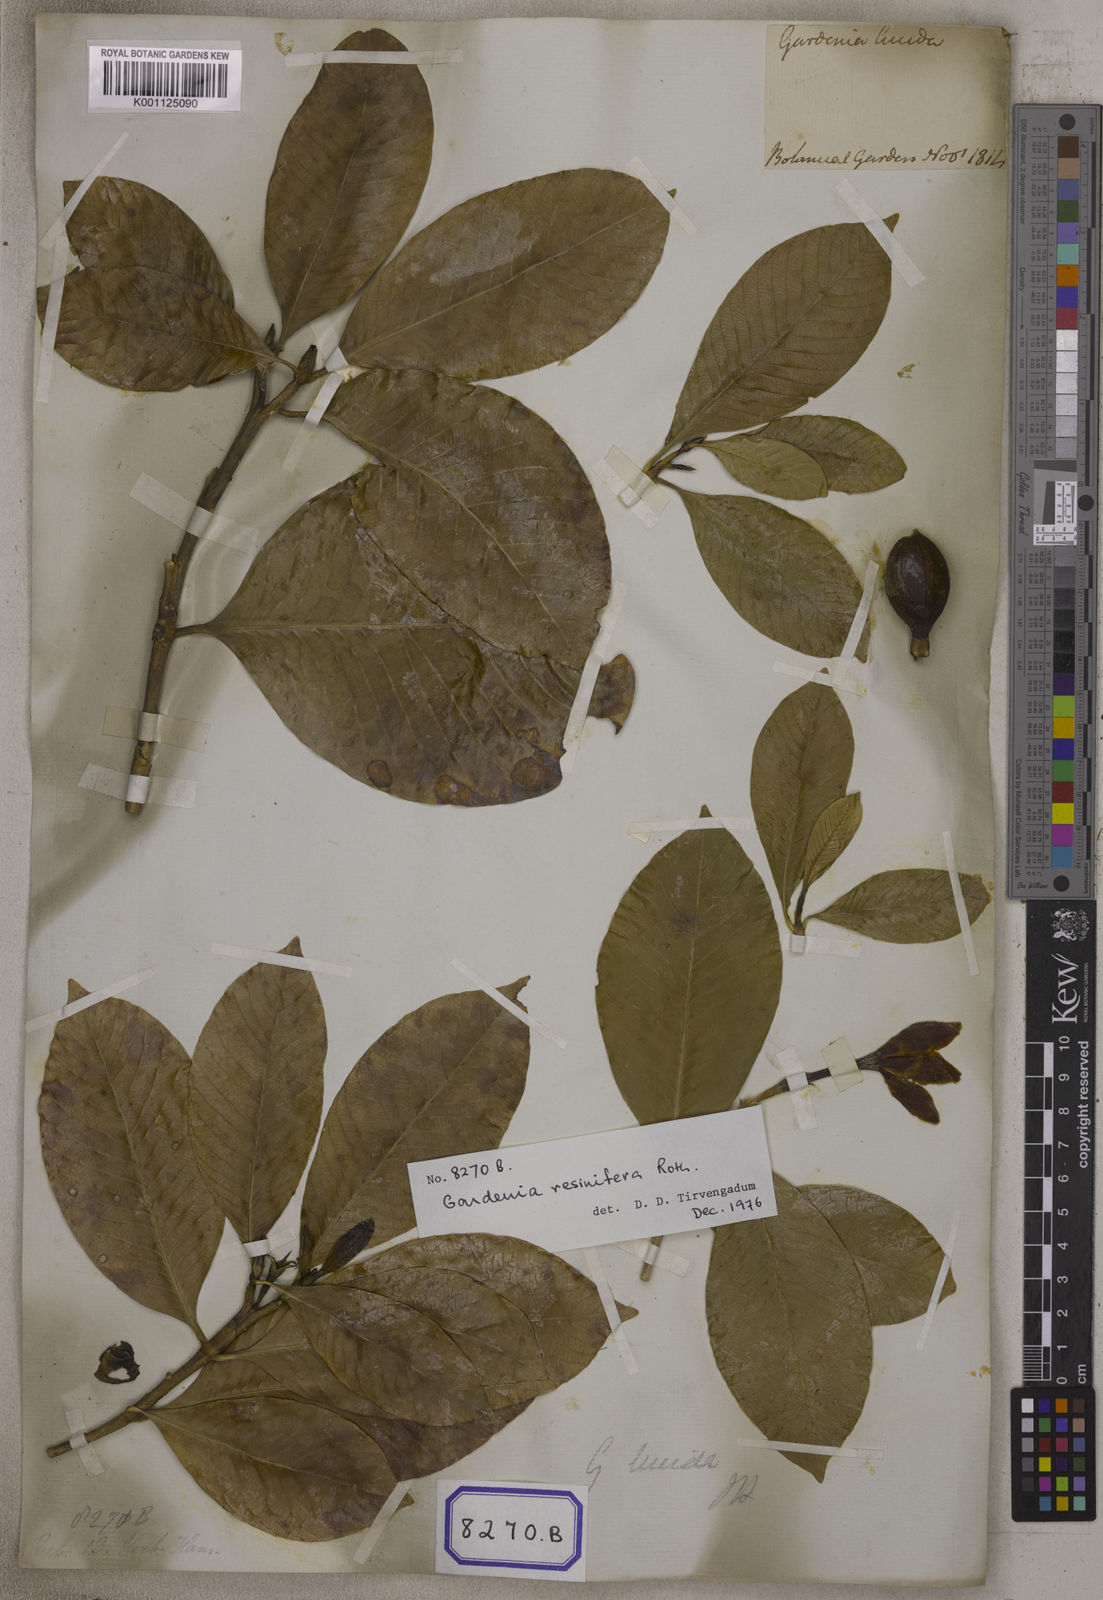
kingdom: Plantae
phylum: Tracheophyta
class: Magnoliopsida
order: Gentianales
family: Rubiaceae
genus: Gardenia
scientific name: Gardenia resinifera
